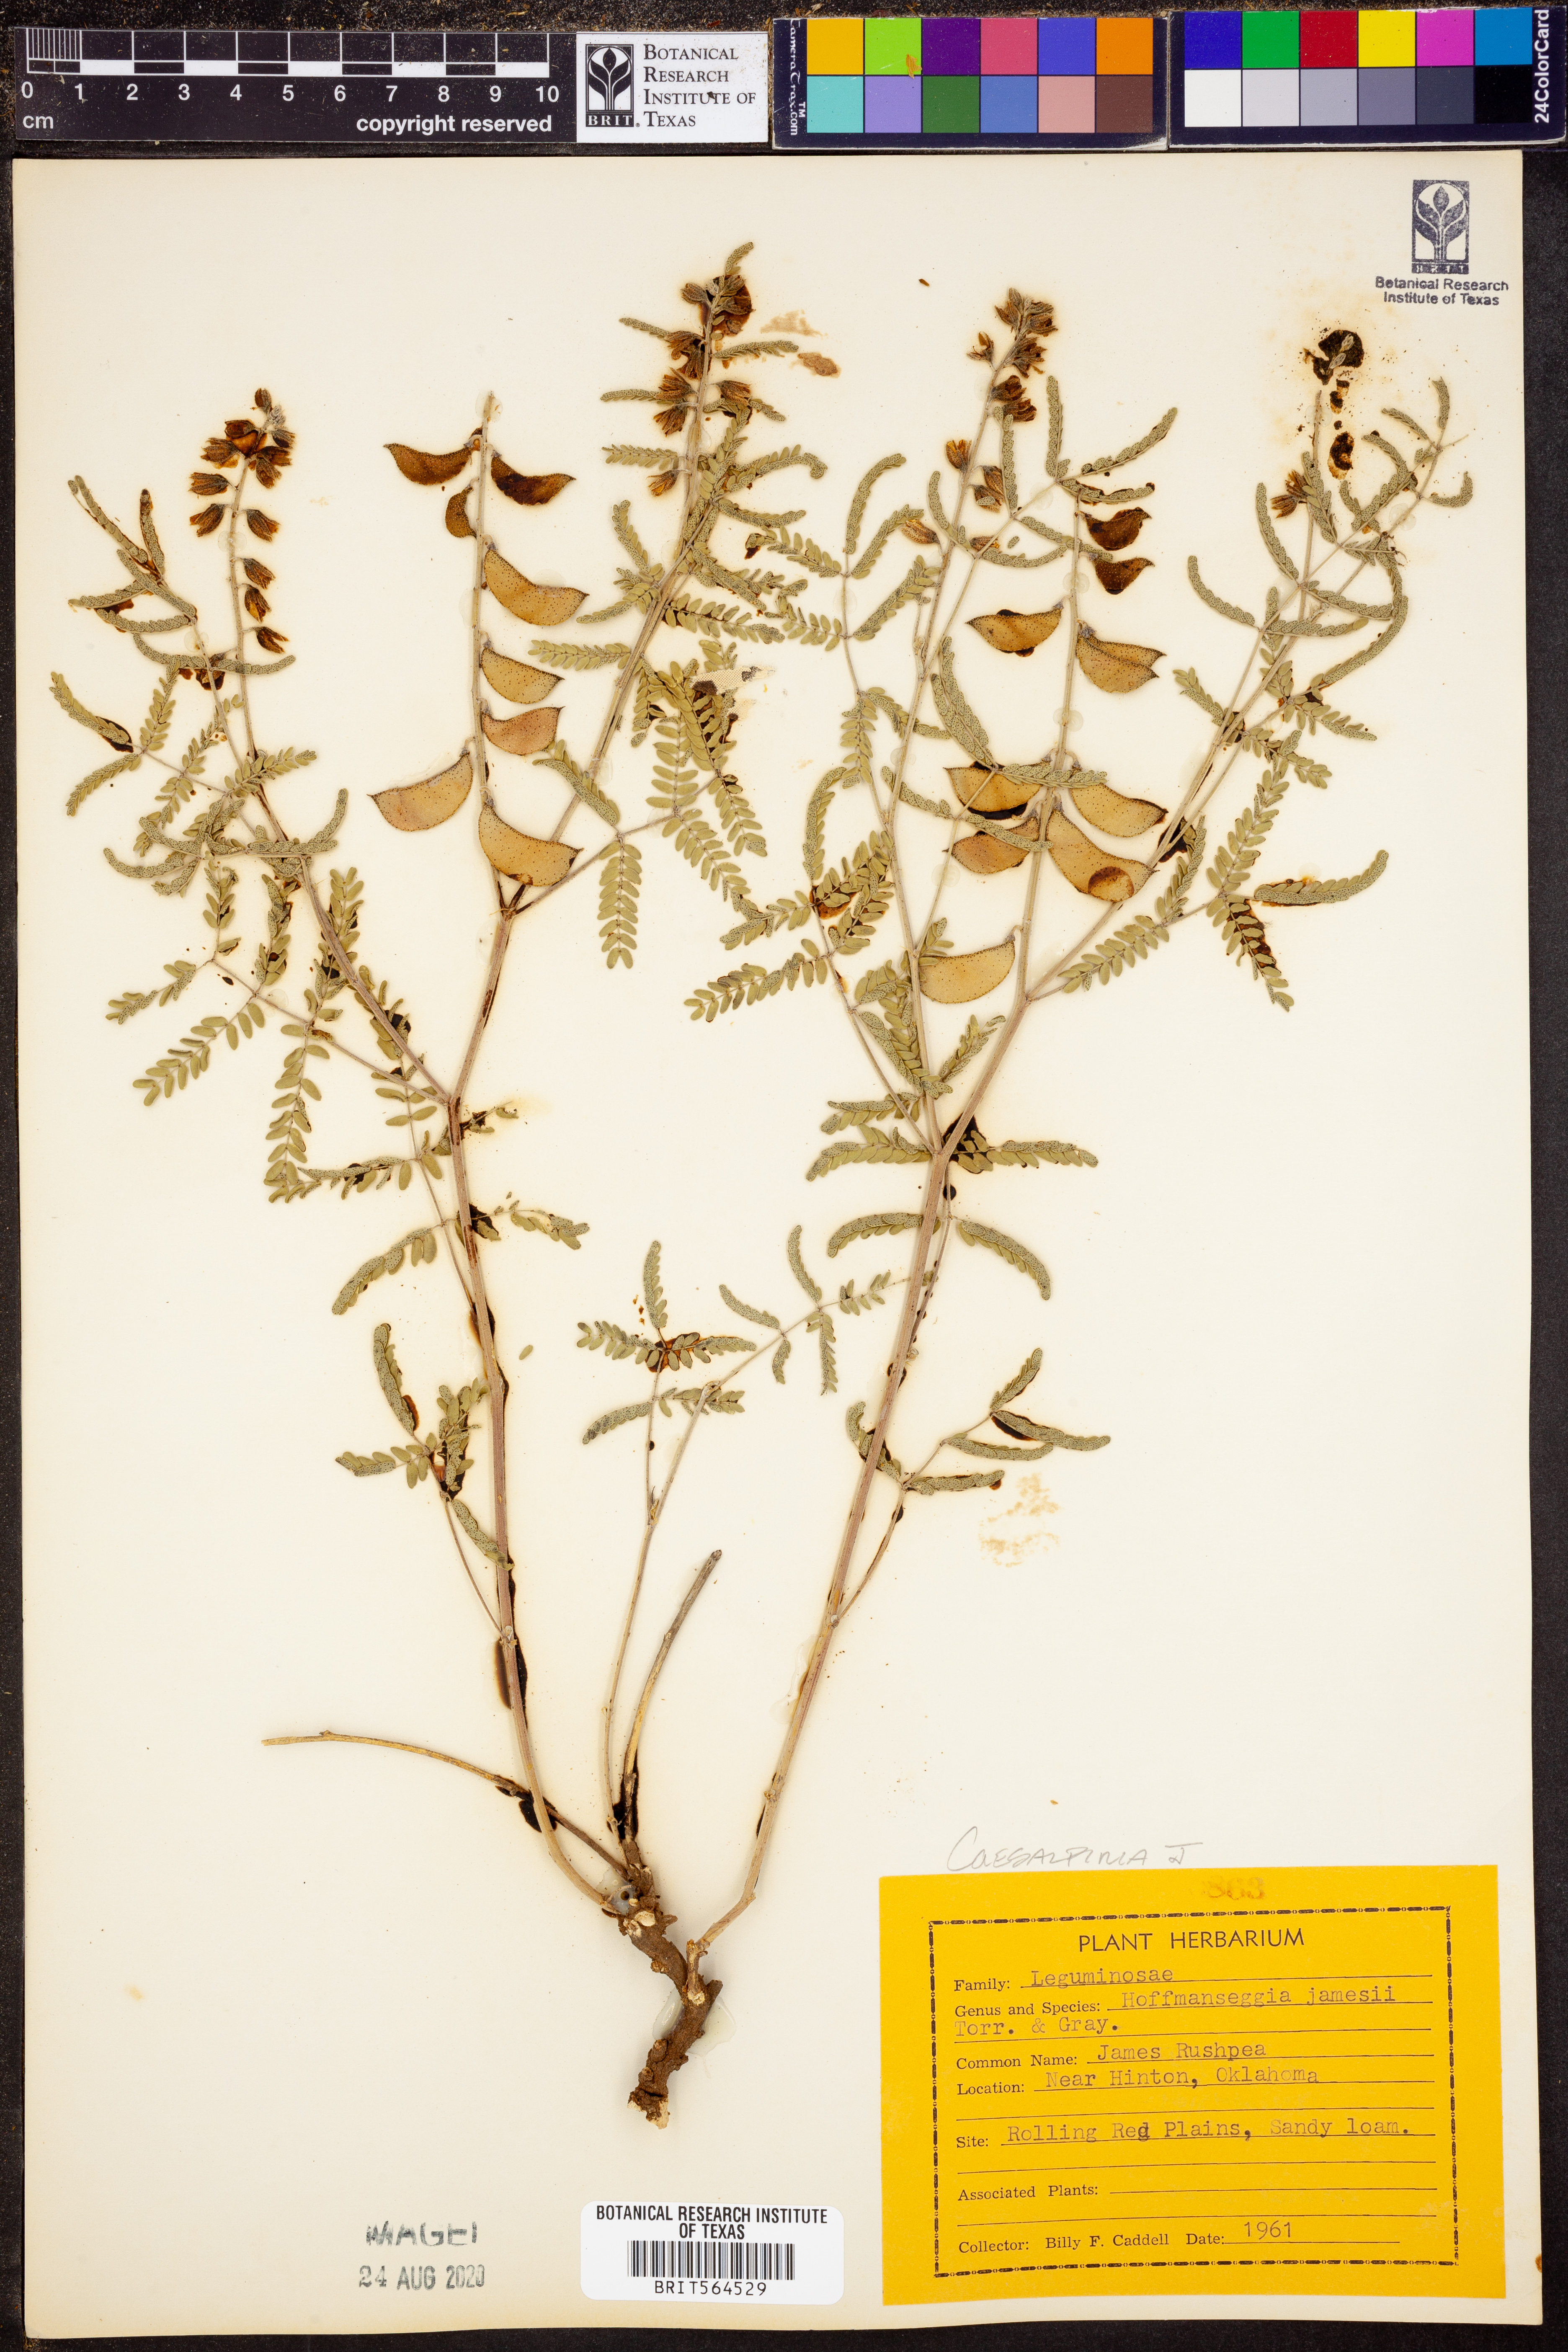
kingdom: Plantae
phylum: Tracheophyta
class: Magnoliopsida
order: Fabales
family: Fabaceae
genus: Pomaria
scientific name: Pomaria jamesii
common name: James' caesalpinia
